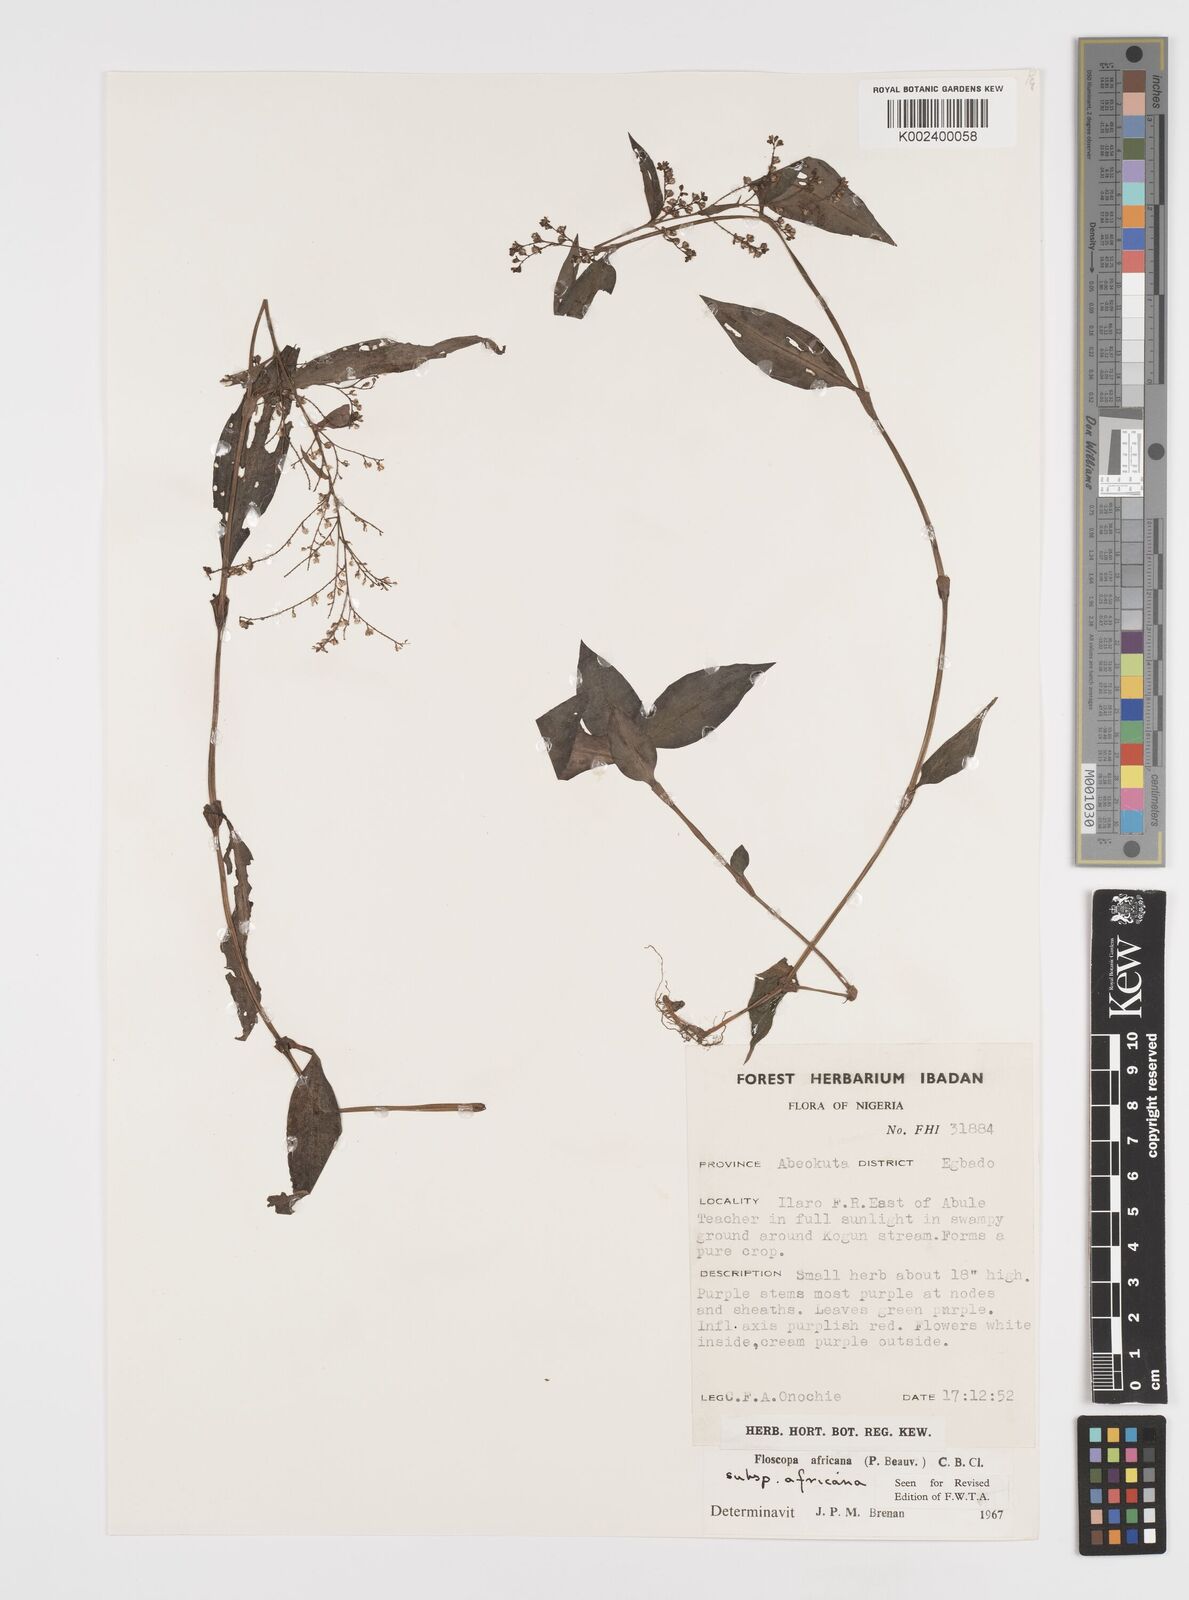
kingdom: Plantae
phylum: Tracheophyta
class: Liliopsida
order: Commelinales
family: Commelinaceae
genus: Floscopa
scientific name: Floscopa africana
